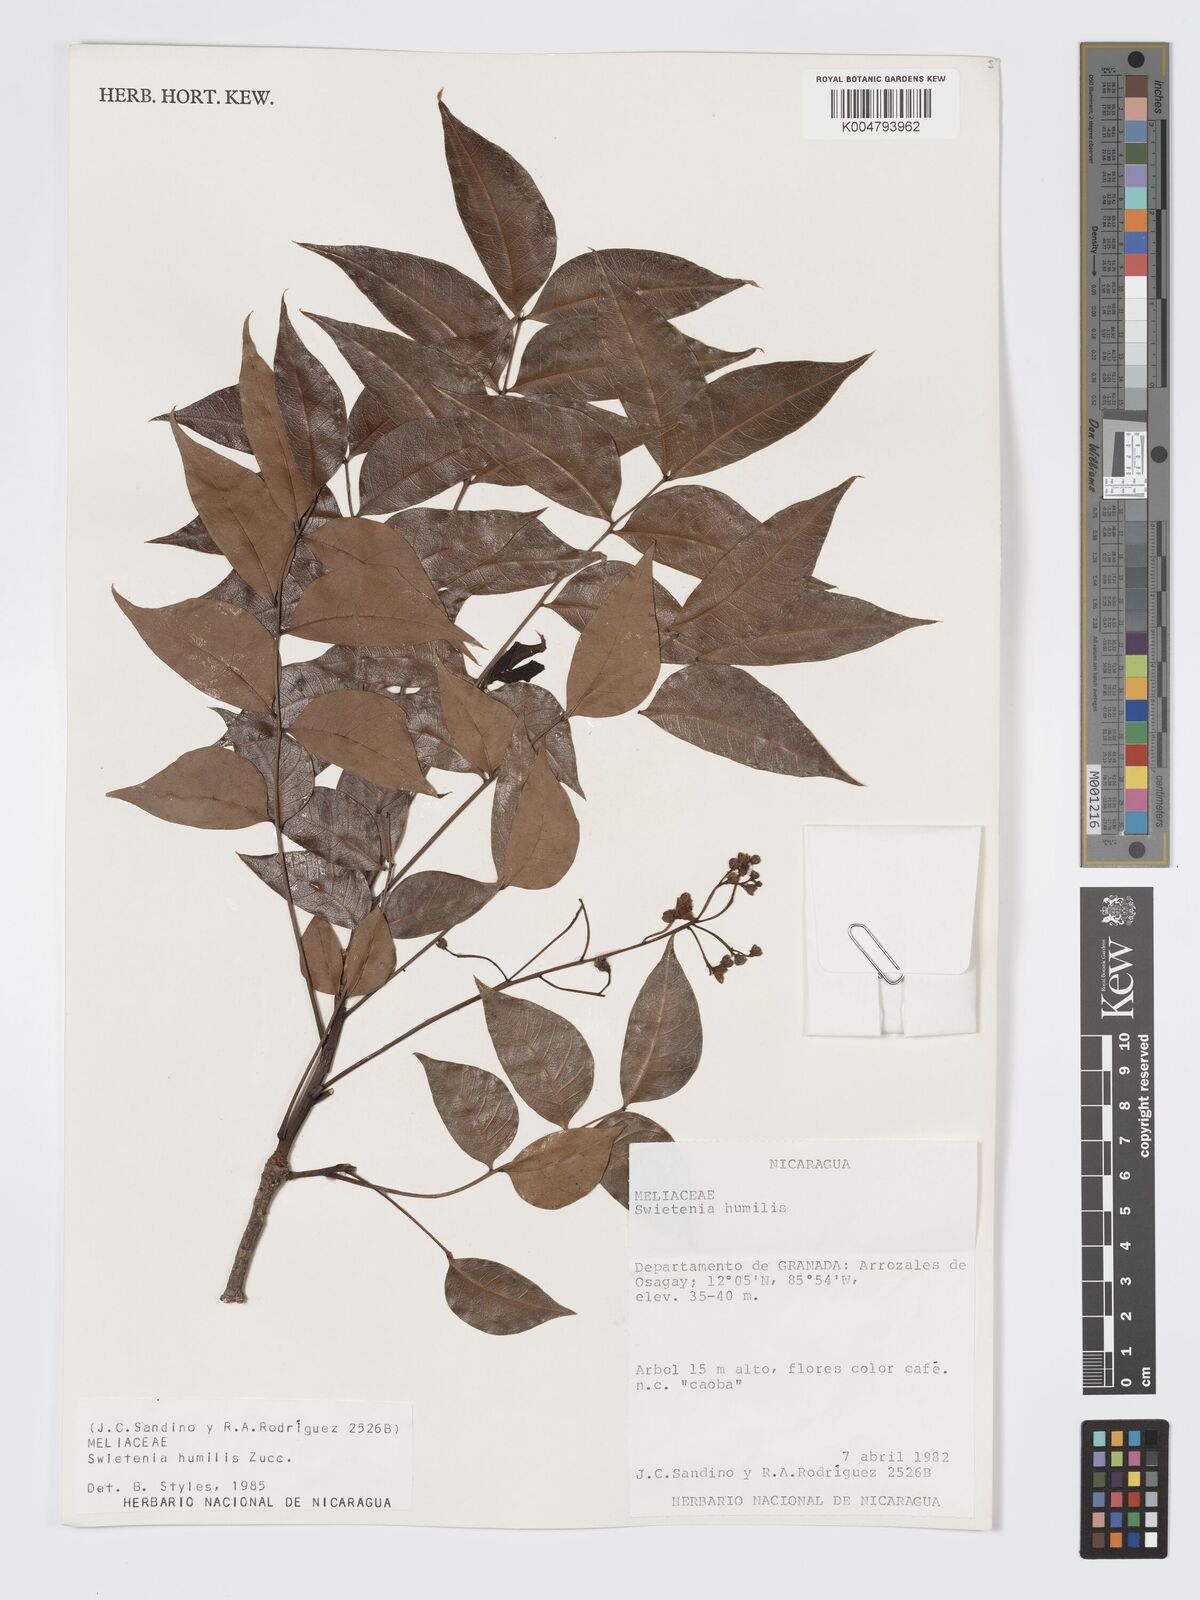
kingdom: Plantae
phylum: Tracheophyta
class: Magnoliopsida
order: Sapindales
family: Meliaceae
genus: Swietenia
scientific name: Swietenia humilis
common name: Pacific coast mahogany
